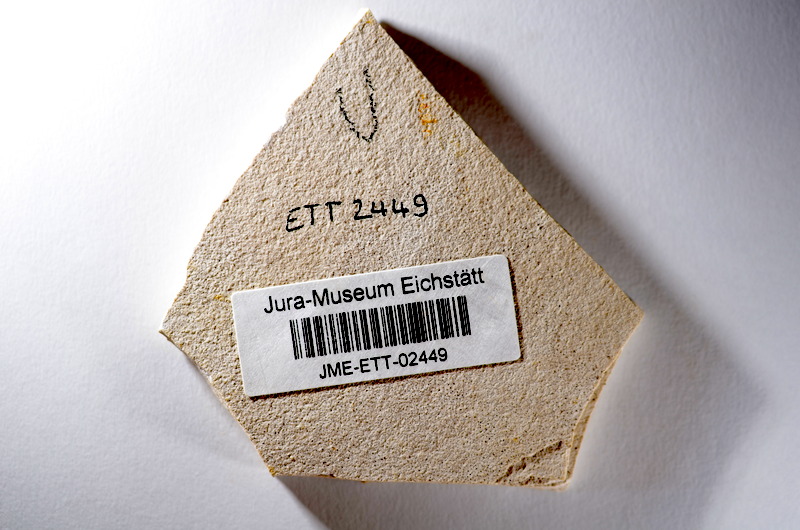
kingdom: Animalia
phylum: Chordata
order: Salmoniformes
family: Orthogonikleithridae
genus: Orthogonikleithrus
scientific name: Orthogonikleithrus hoelli
